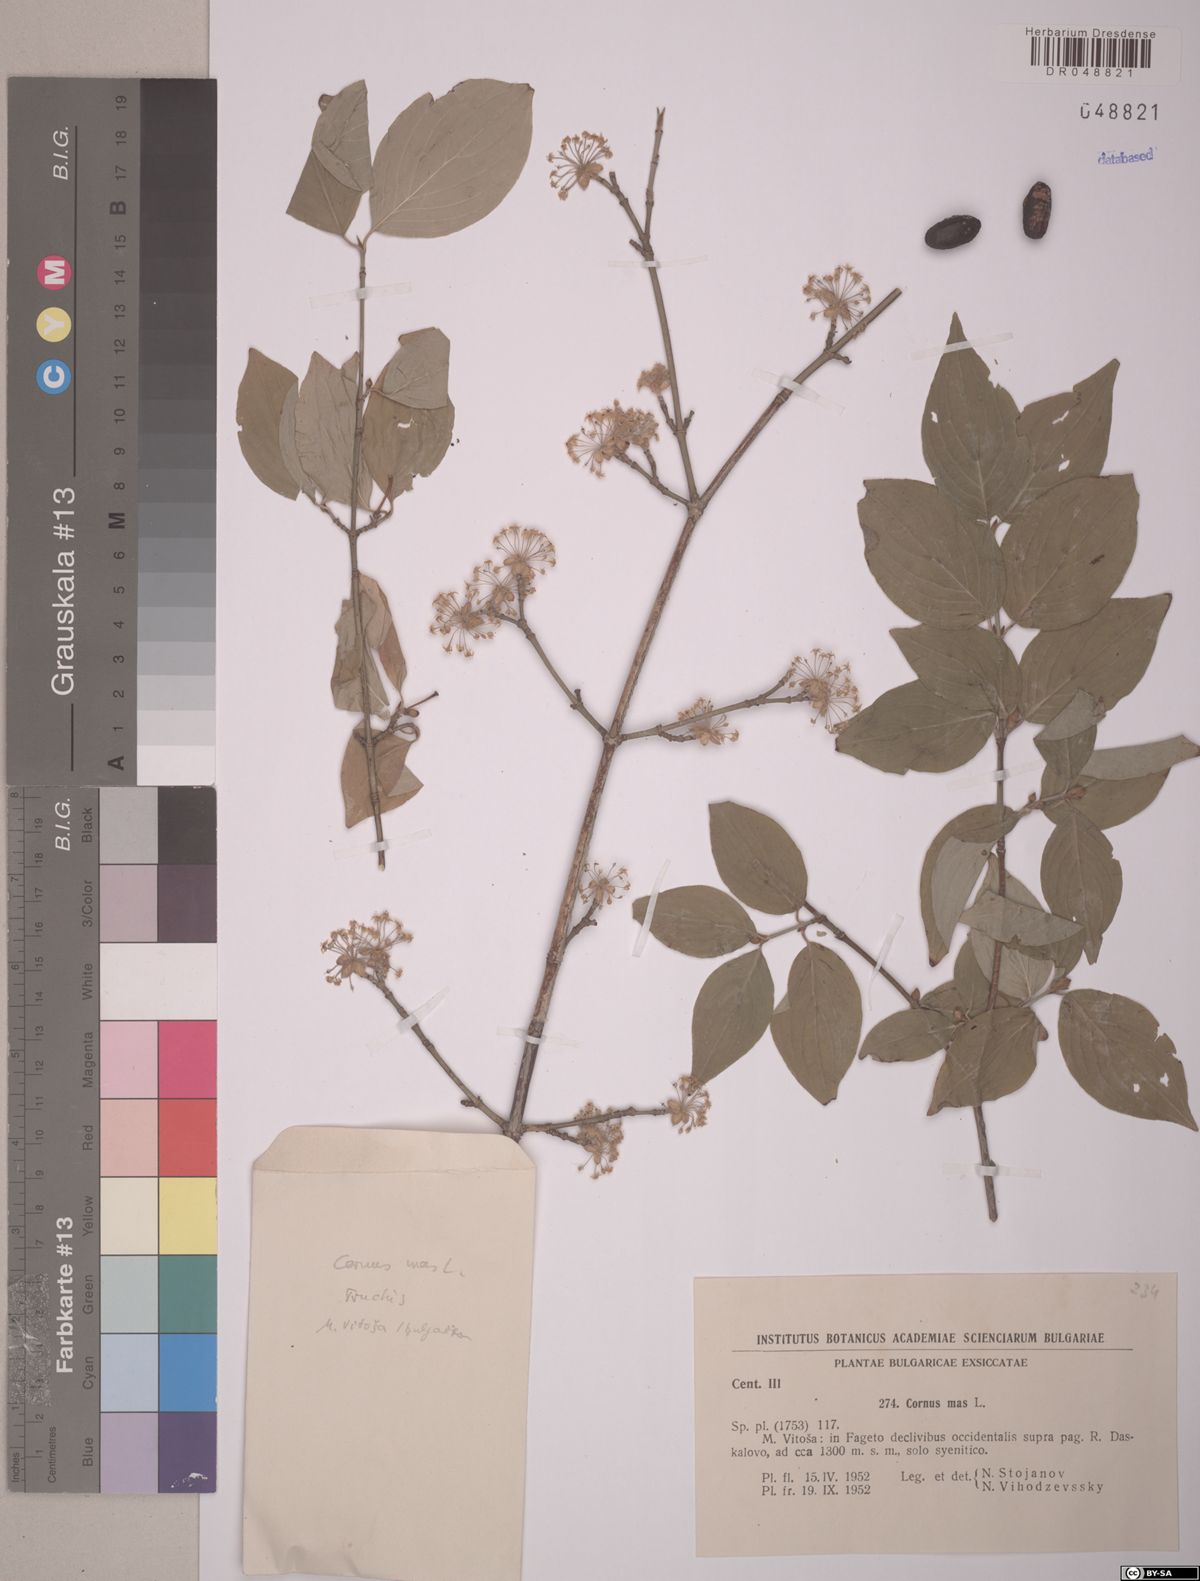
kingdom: Plantae
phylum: Tracheophyta
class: Magnoliopsida
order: Cornales
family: Cornaceae
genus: Cornus
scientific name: Cornus mas
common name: Cornelian-cherry
